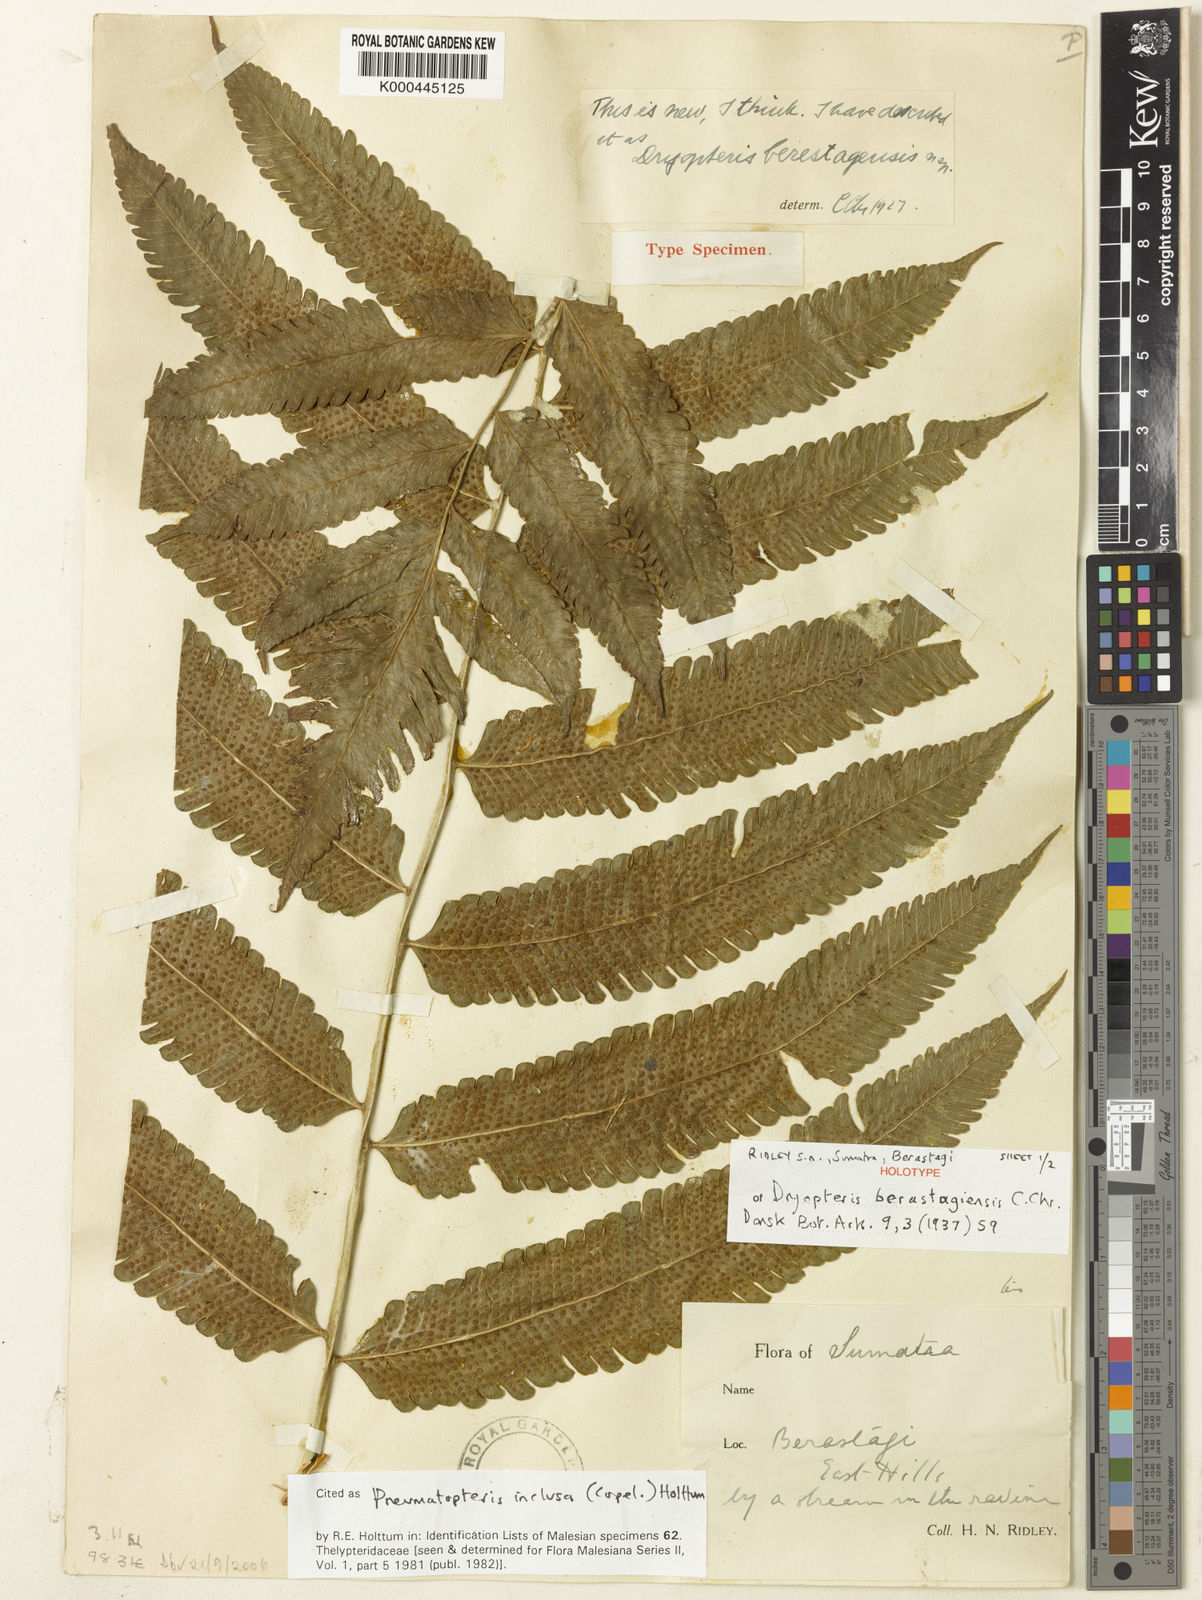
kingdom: Plantae
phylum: Tracheophyta
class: Polypodiopsida
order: Polypodiales
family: Thelypteridaceae
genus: Reholttumia
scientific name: Reholttumia inclusa
